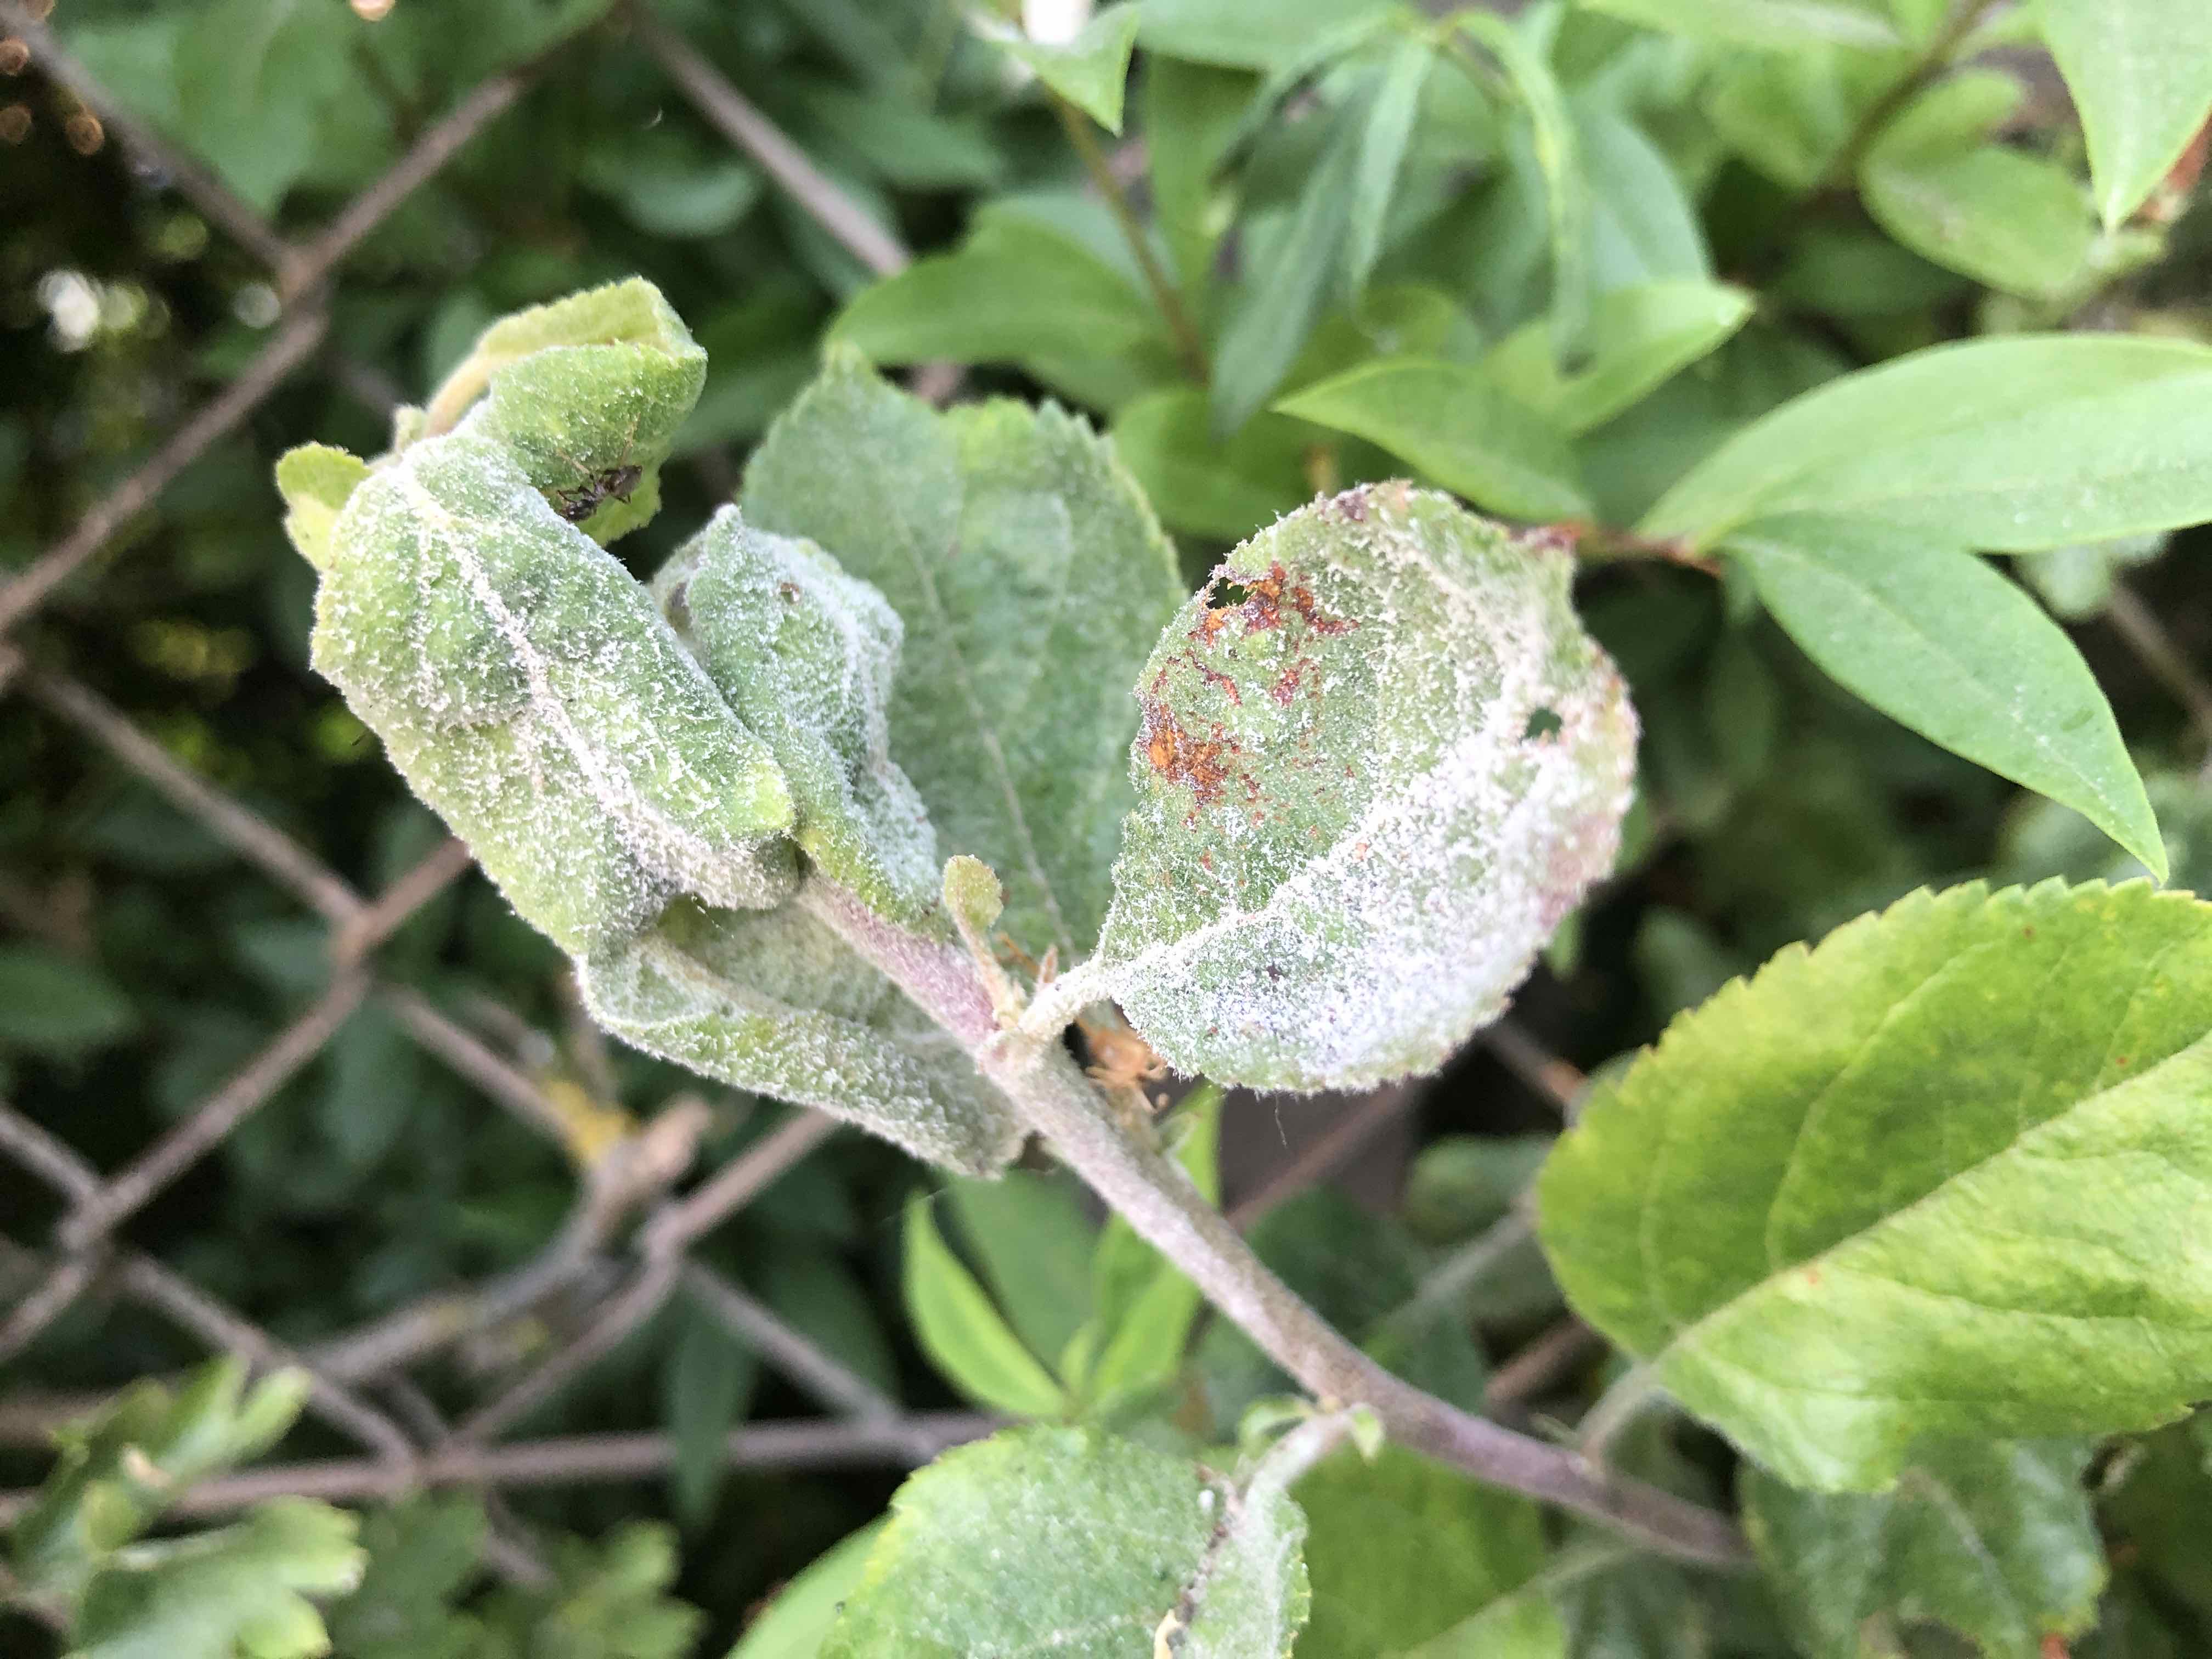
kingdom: Fungi
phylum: Ascomycota
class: Leotiomycetes
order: Helotiales
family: Erysiphaceae
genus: Podosphaera
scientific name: Podosphaera leucotricha
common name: æble-meldug
